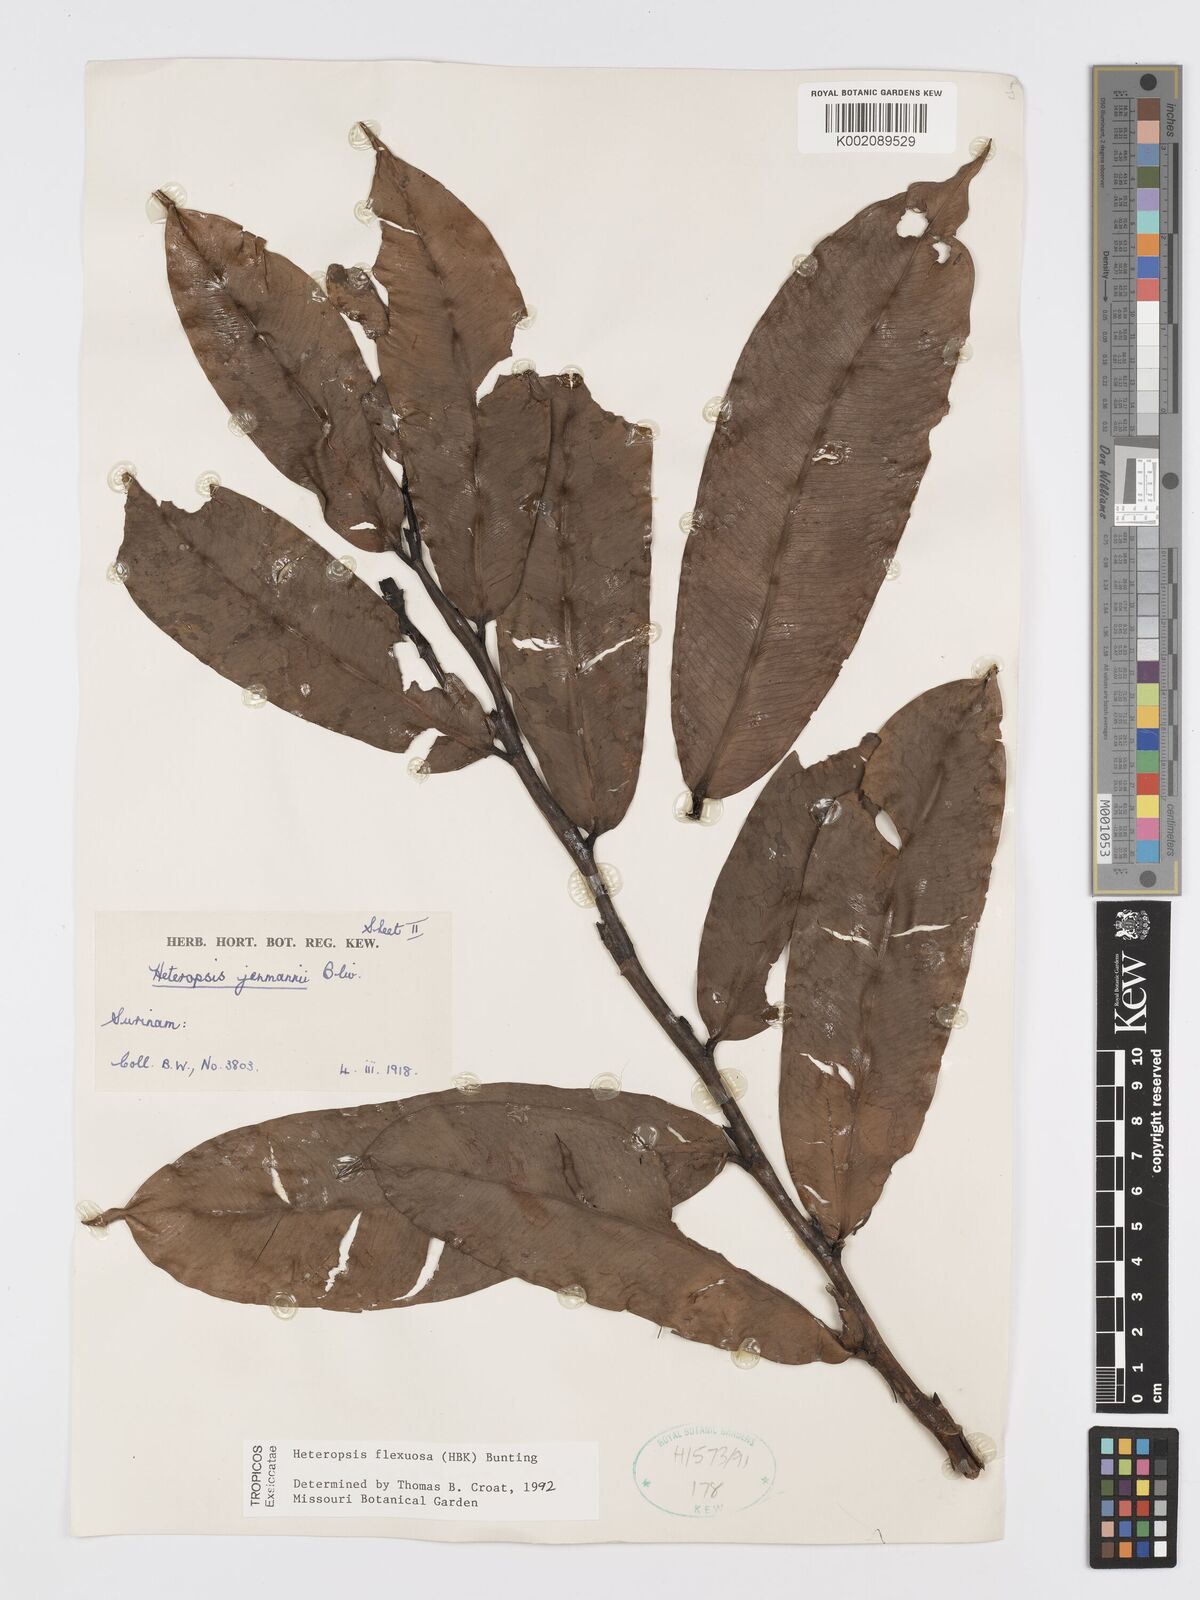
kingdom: Plantae
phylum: Tracheophyta
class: Liliopsida
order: Alismatales
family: Araceae
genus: Heteropsis
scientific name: Heteropsis flexuosa
